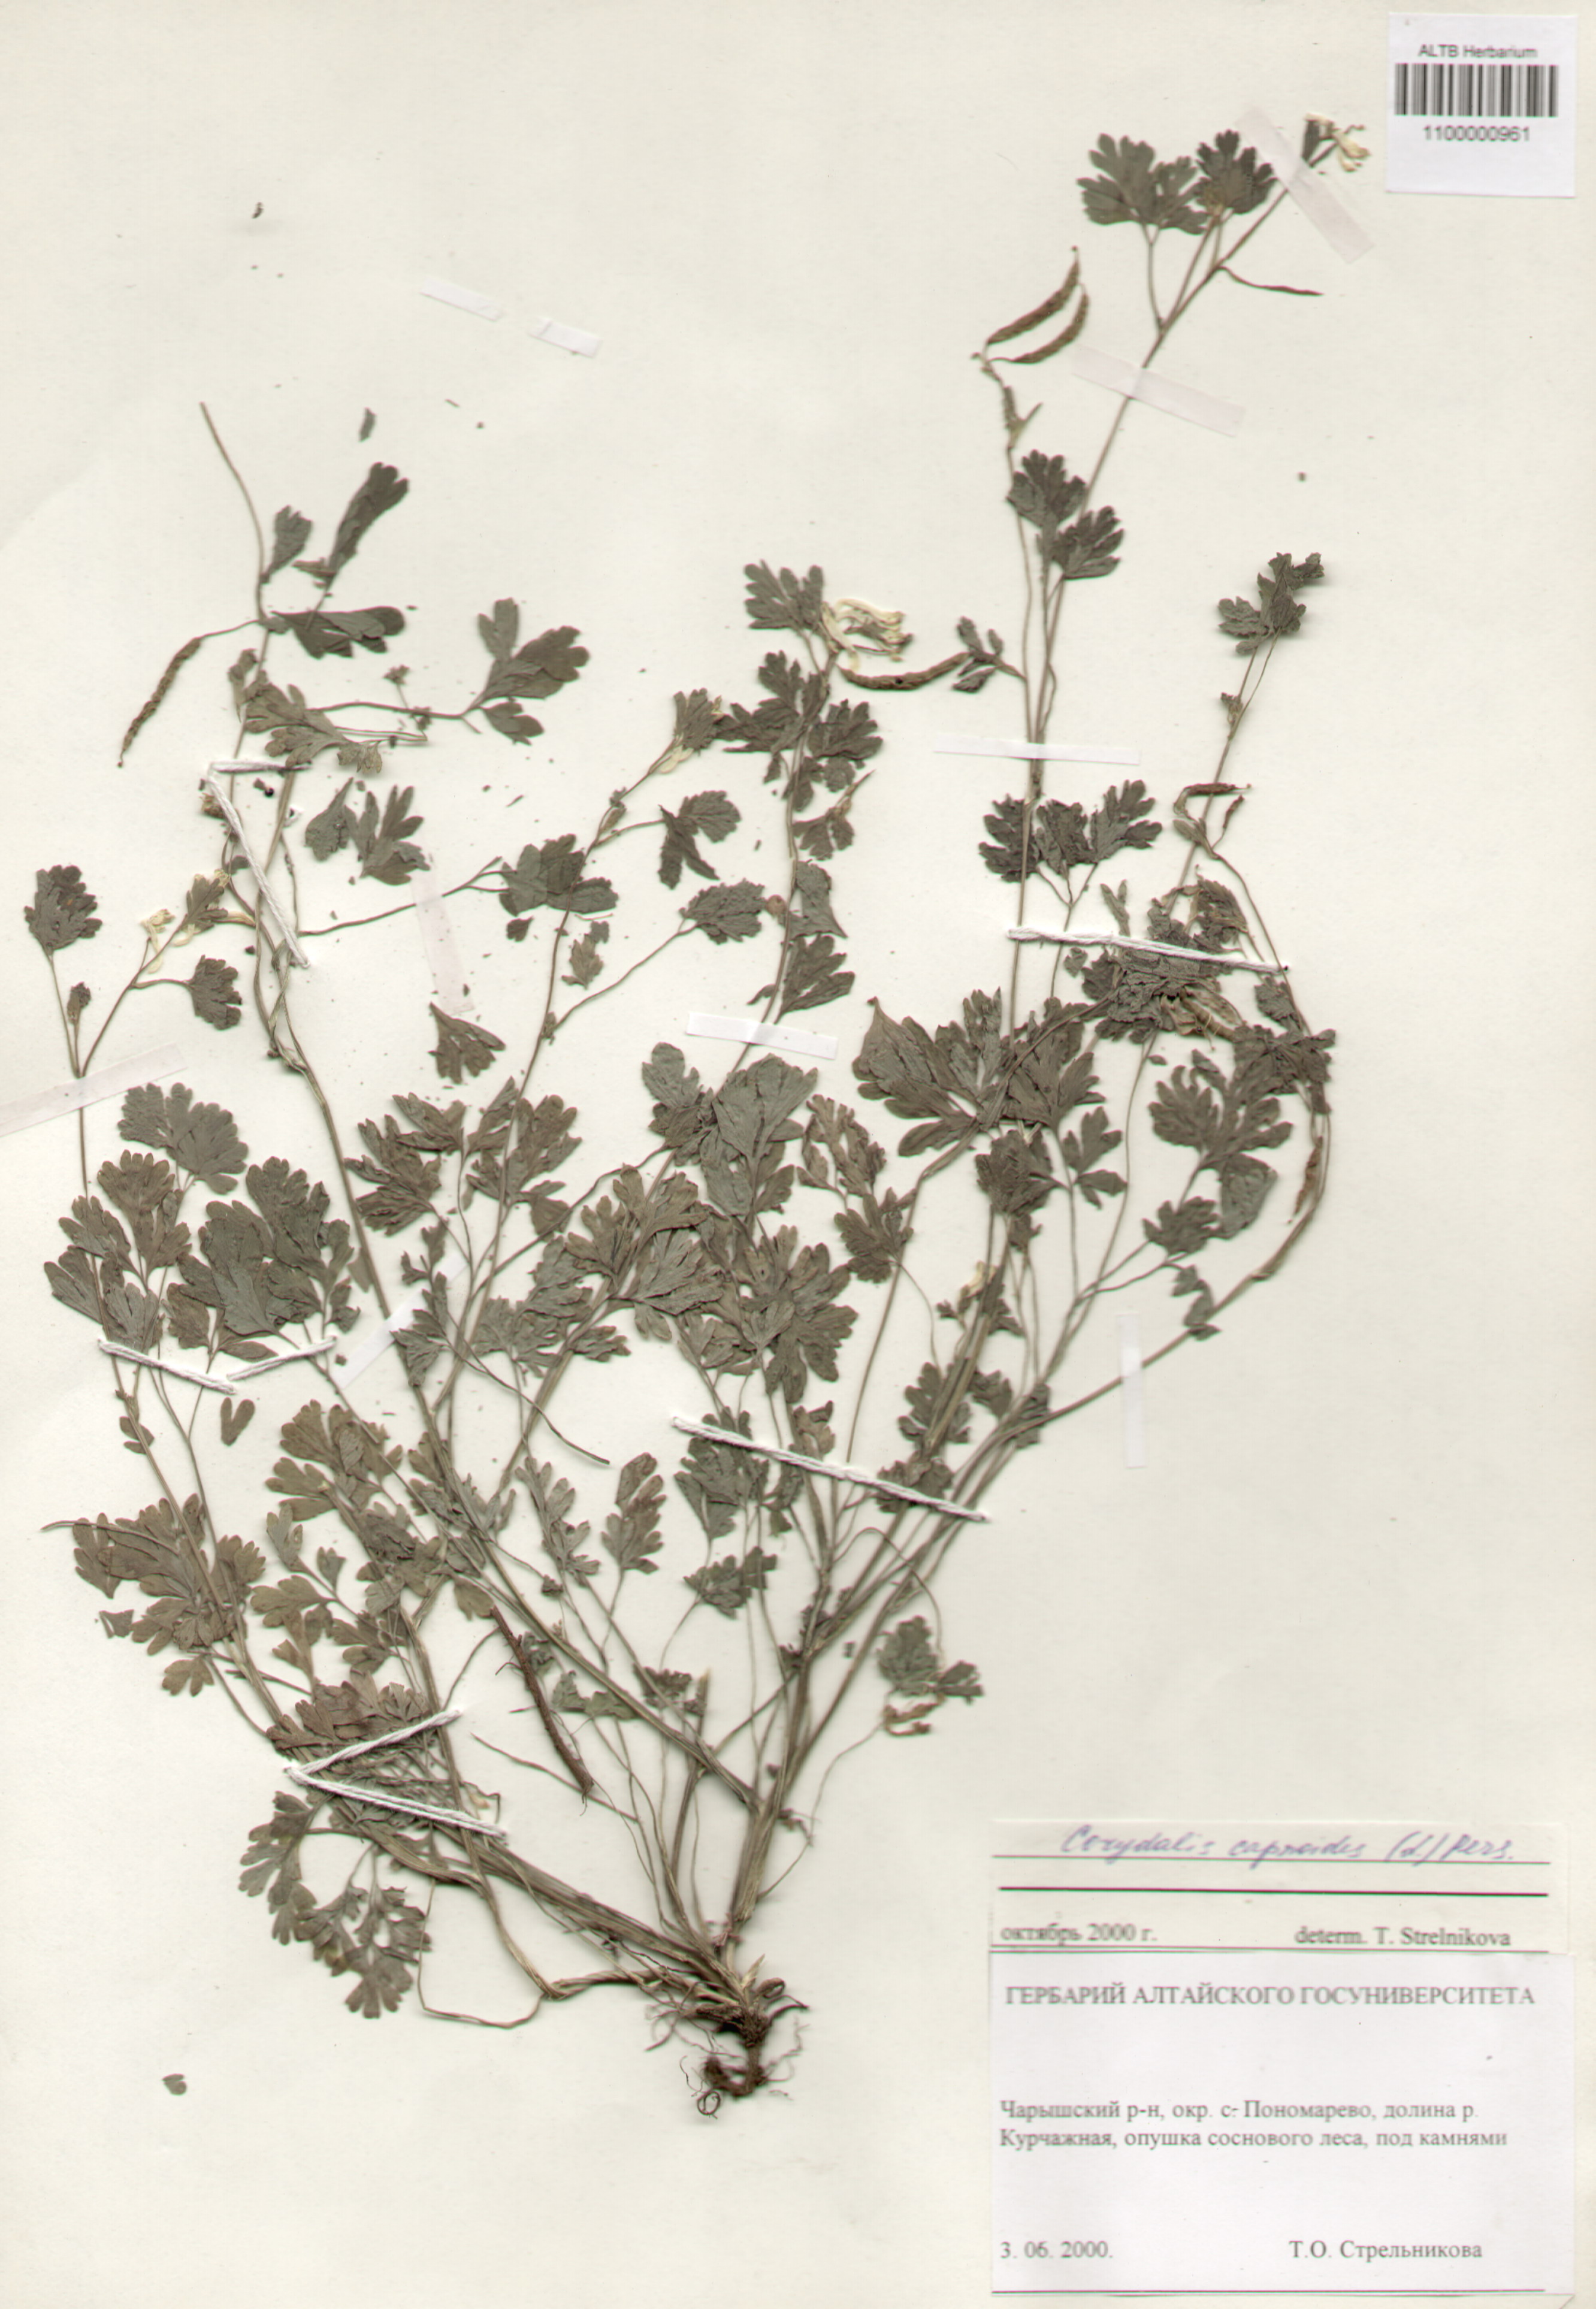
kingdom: Plantae
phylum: Tracheophyta
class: Magnoliopsida
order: Ranunculales
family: Papaveraceae
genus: Corydalis
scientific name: Corydalis capnoides
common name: Beaked corydalis
